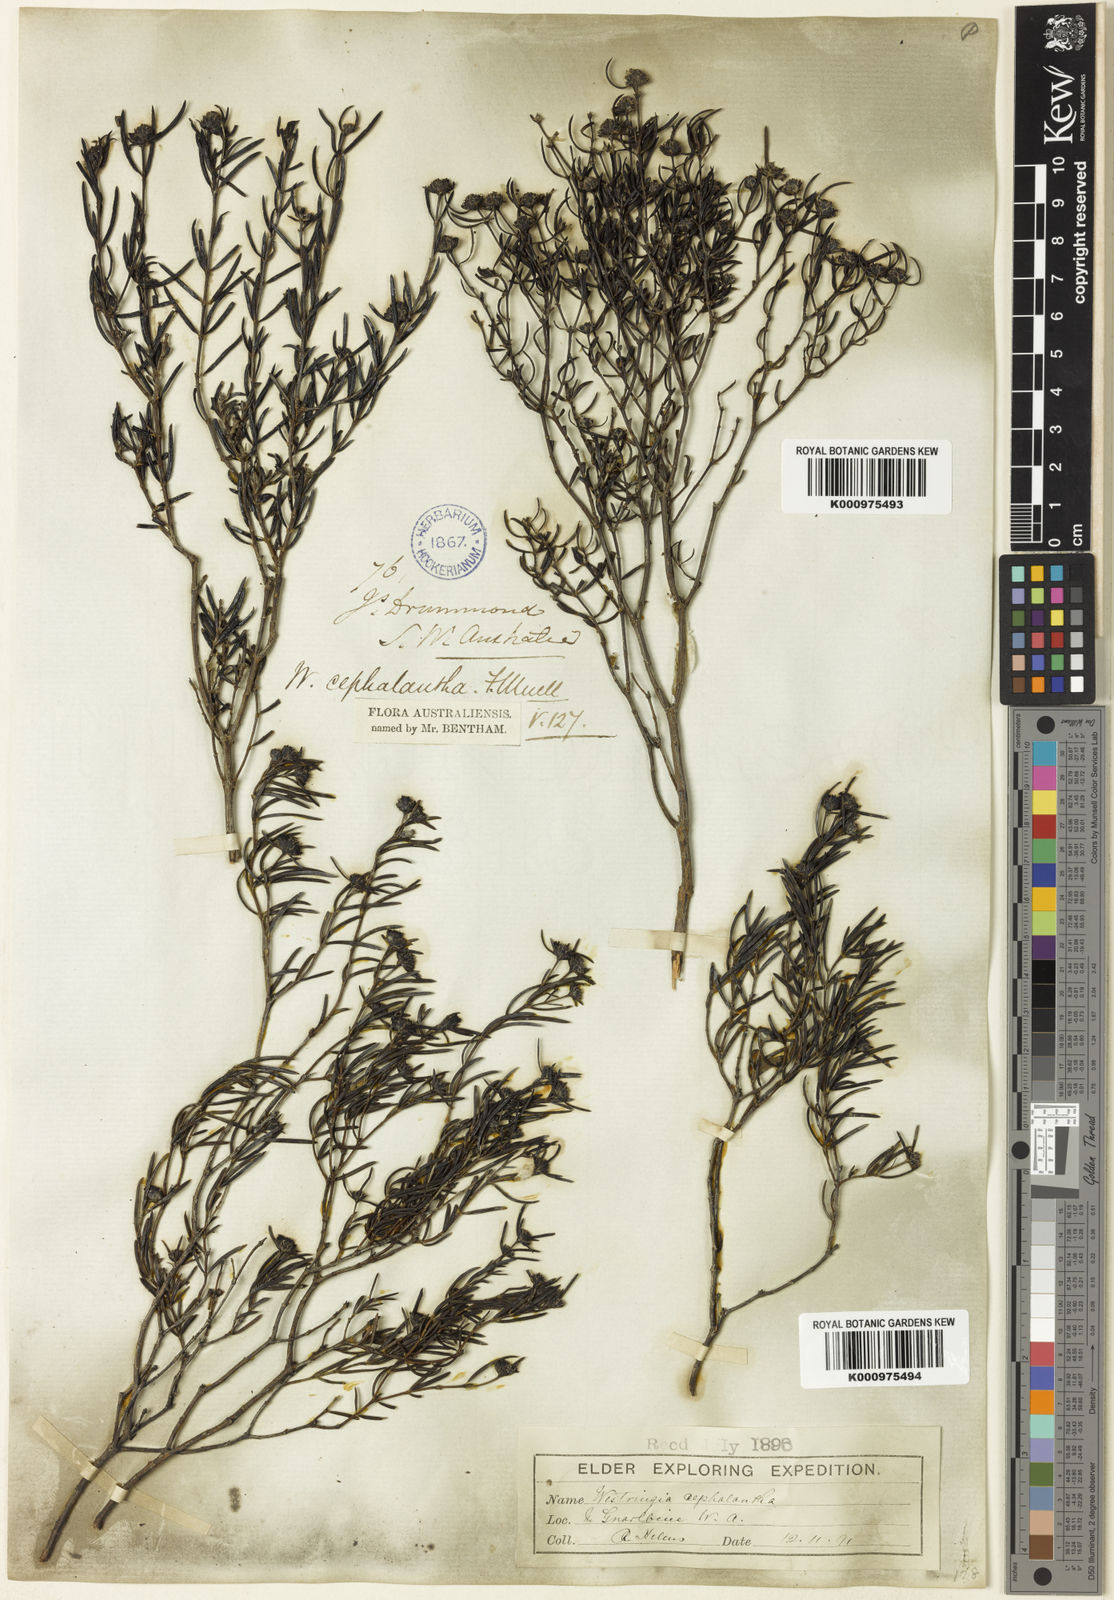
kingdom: Plantae
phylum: Tracheophyta
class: Magnoliopsida
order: Lamiales
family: Lamiaceae
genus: Westringia
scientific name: Westringia cephalantha
